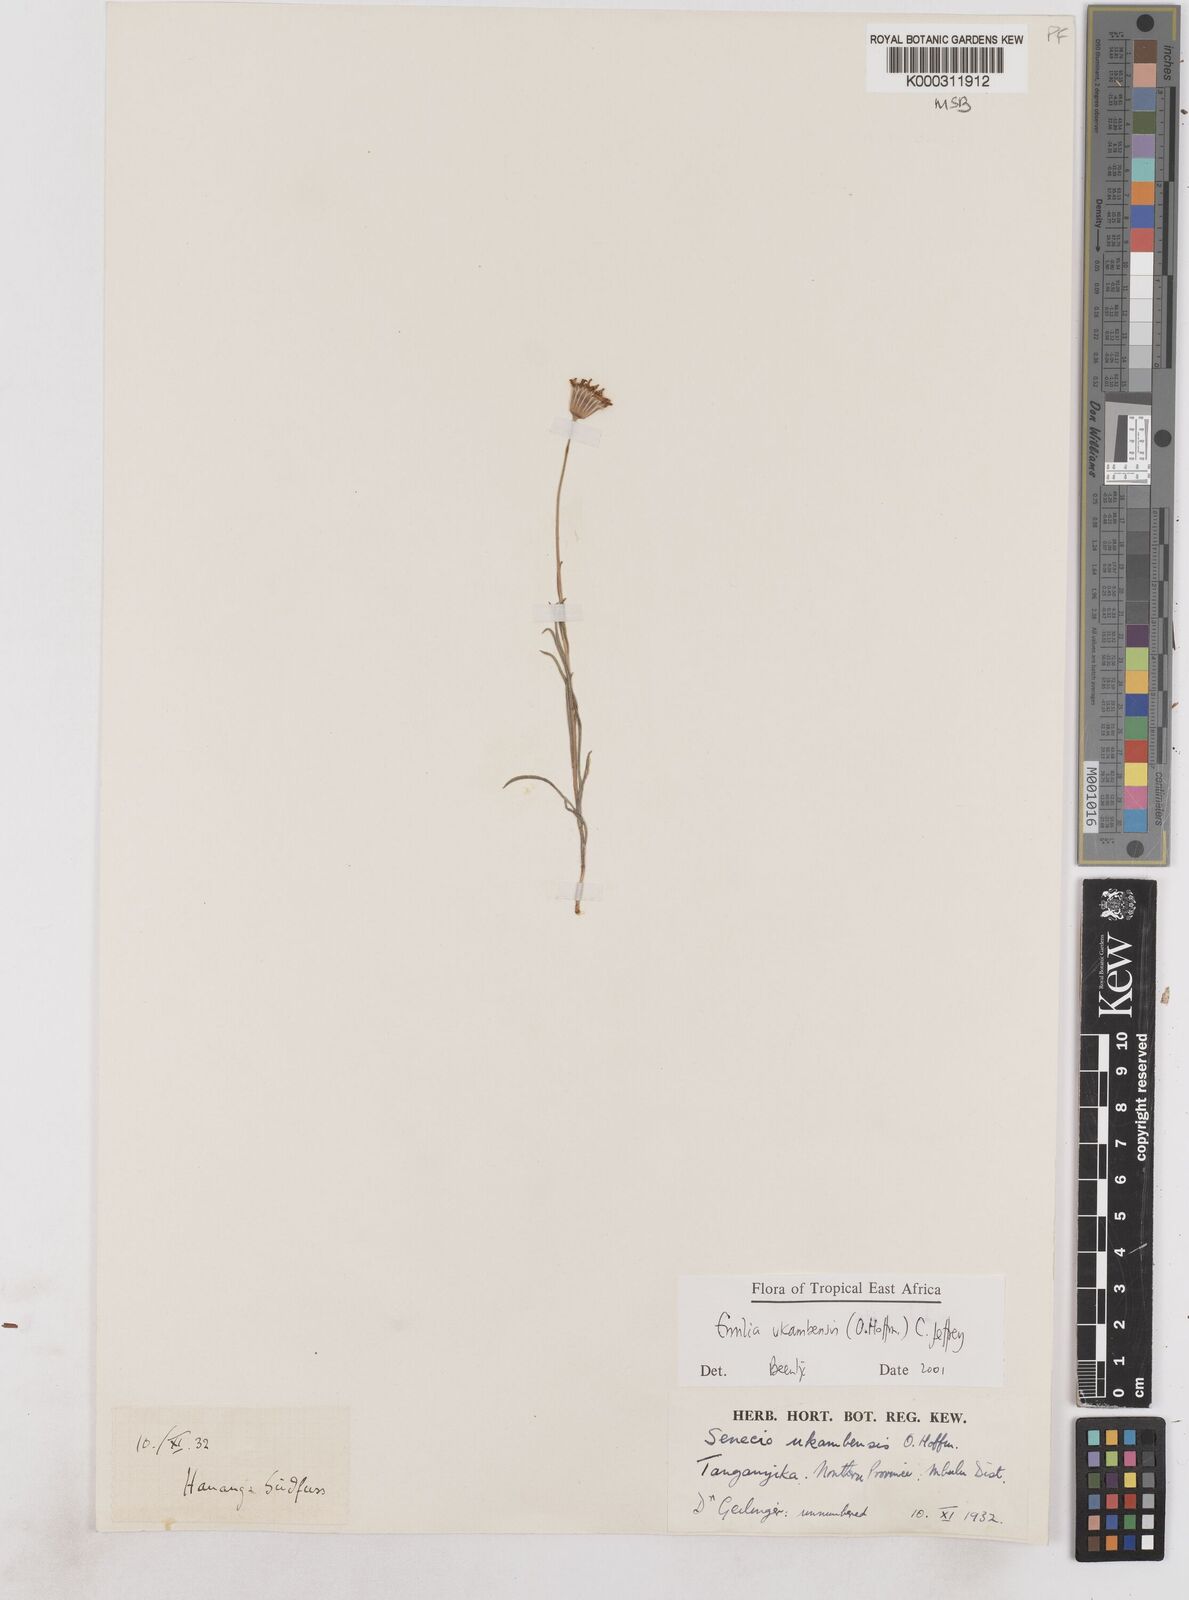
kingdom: Plantae
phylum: Tracheophyta
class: Magnoliopsida
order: Asterales
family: Asteraceae
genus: Emilia
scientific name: Emilia ukambensis
